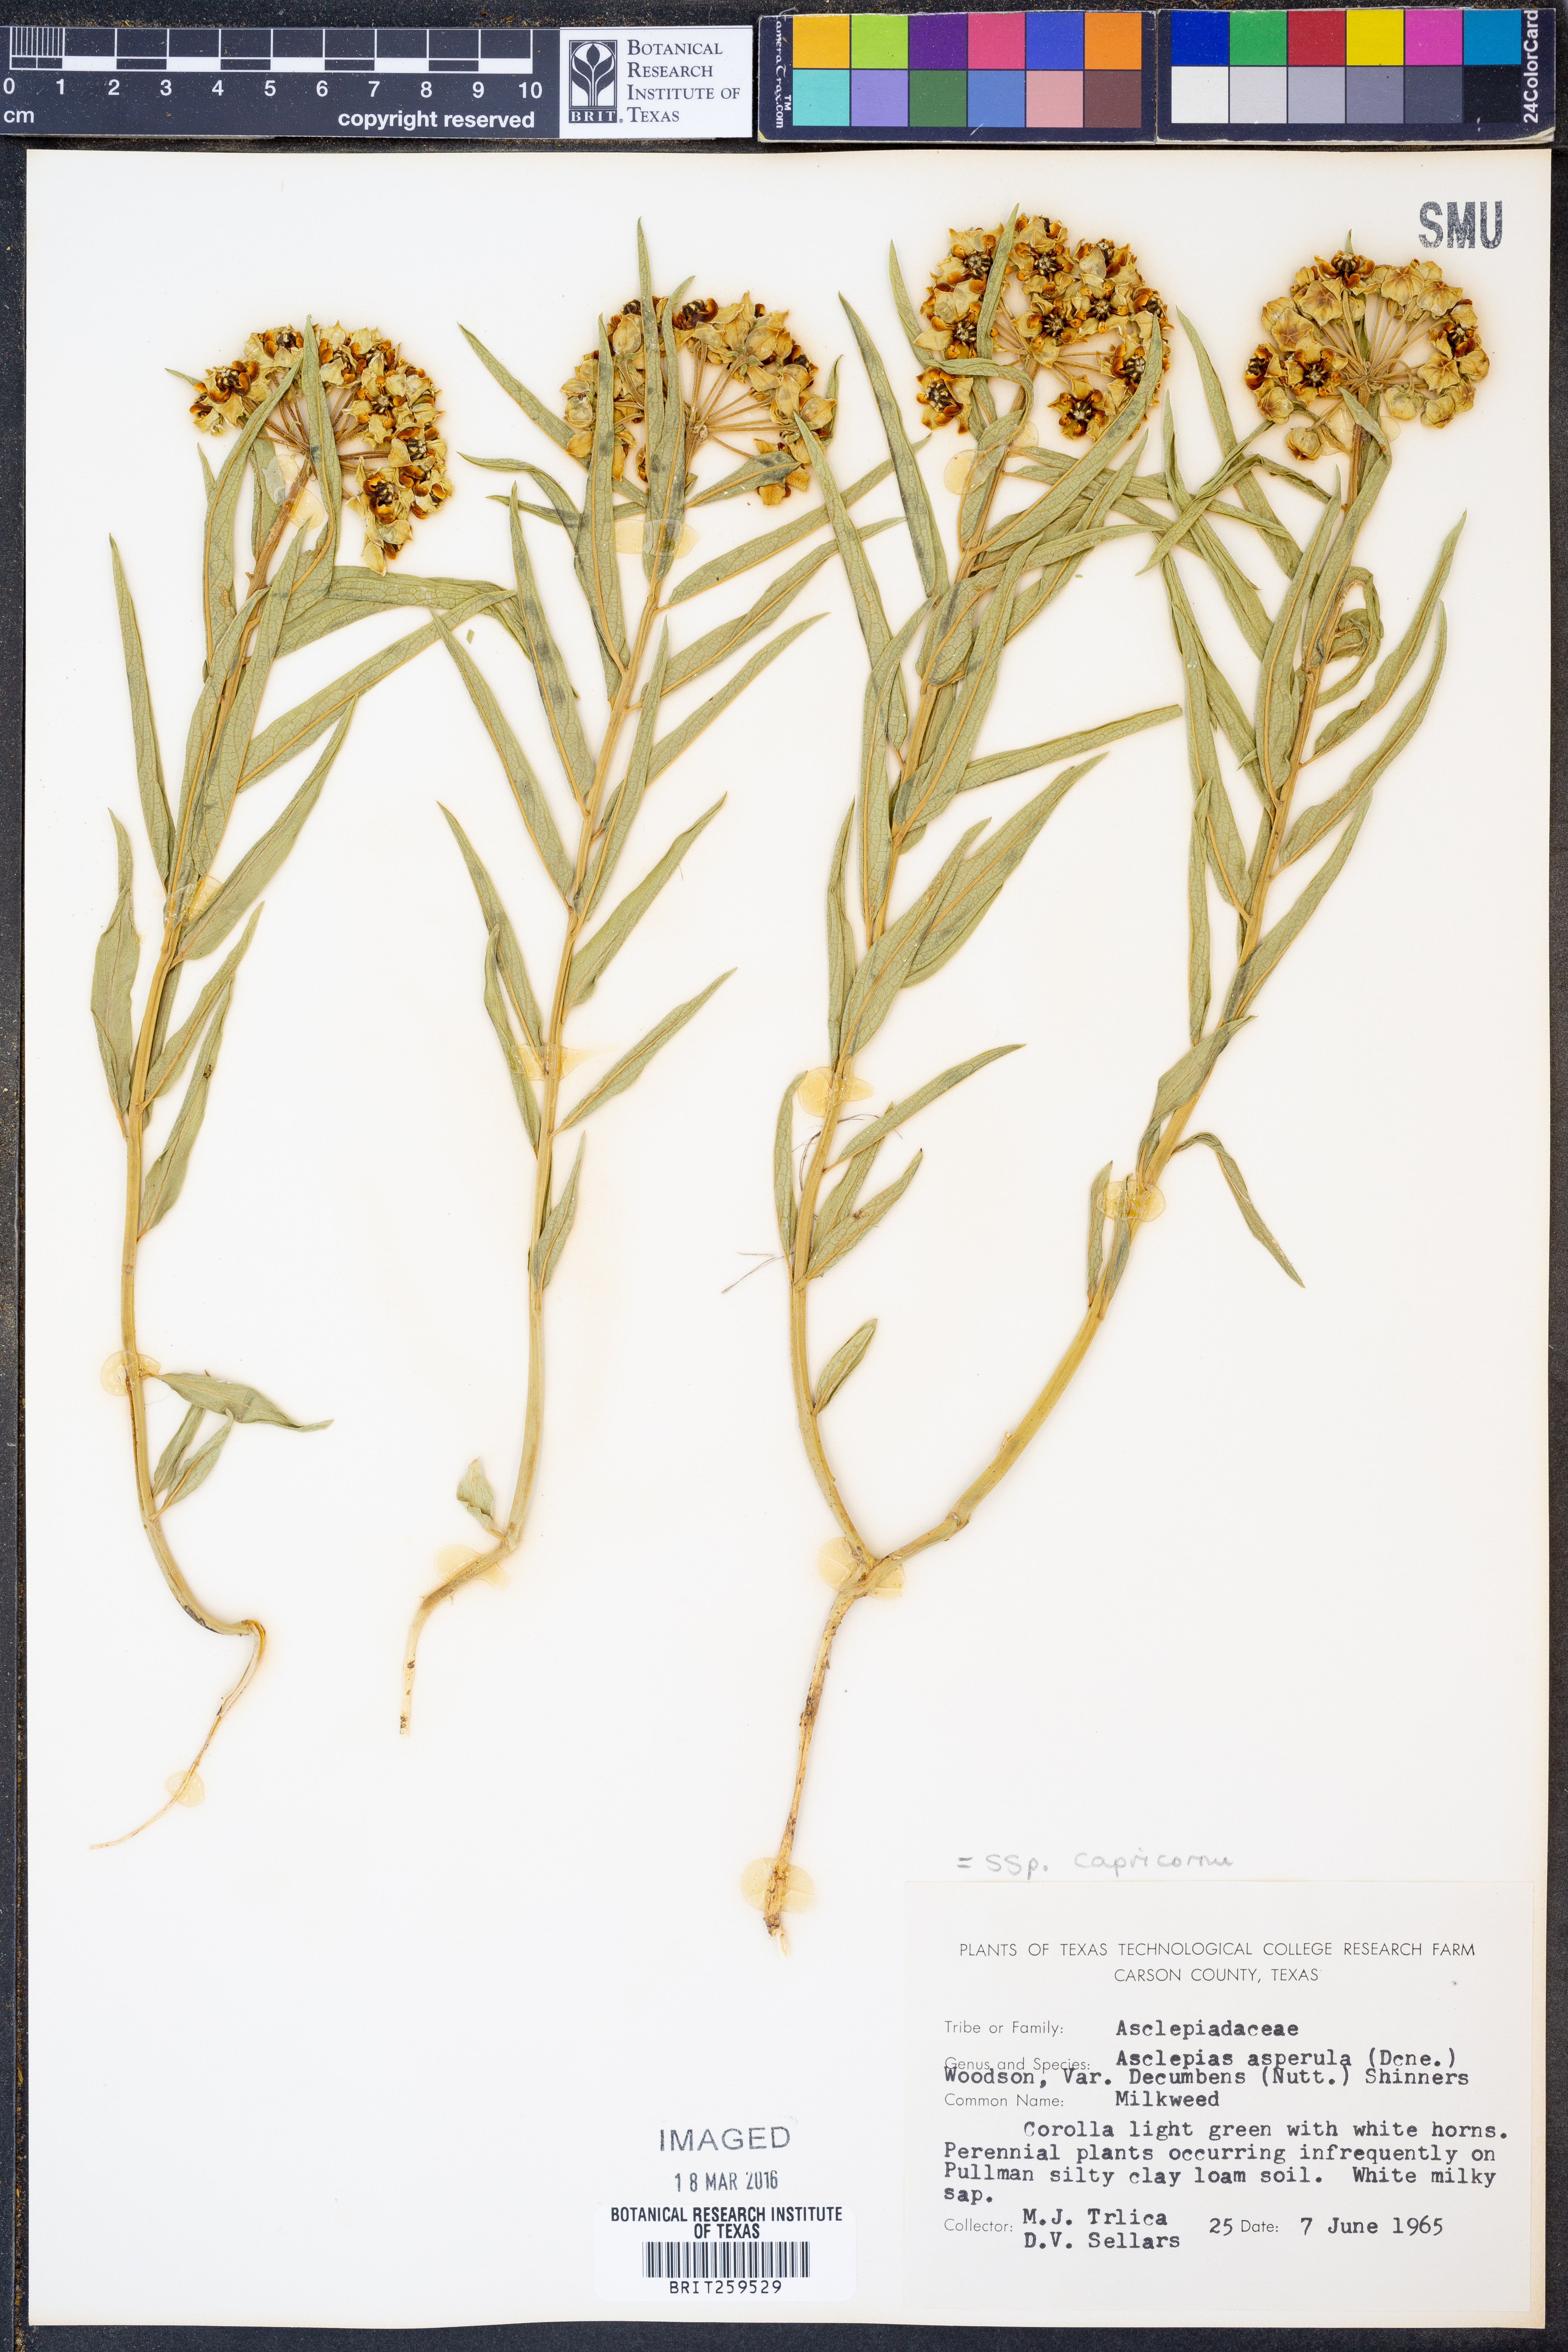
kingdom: Plantae
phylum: Tracheophyta
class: Magnoliopsida
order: Gentianales
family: Apocynaceae
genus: Asclepias
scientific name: Asclepias asperula
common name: Antelope horns
